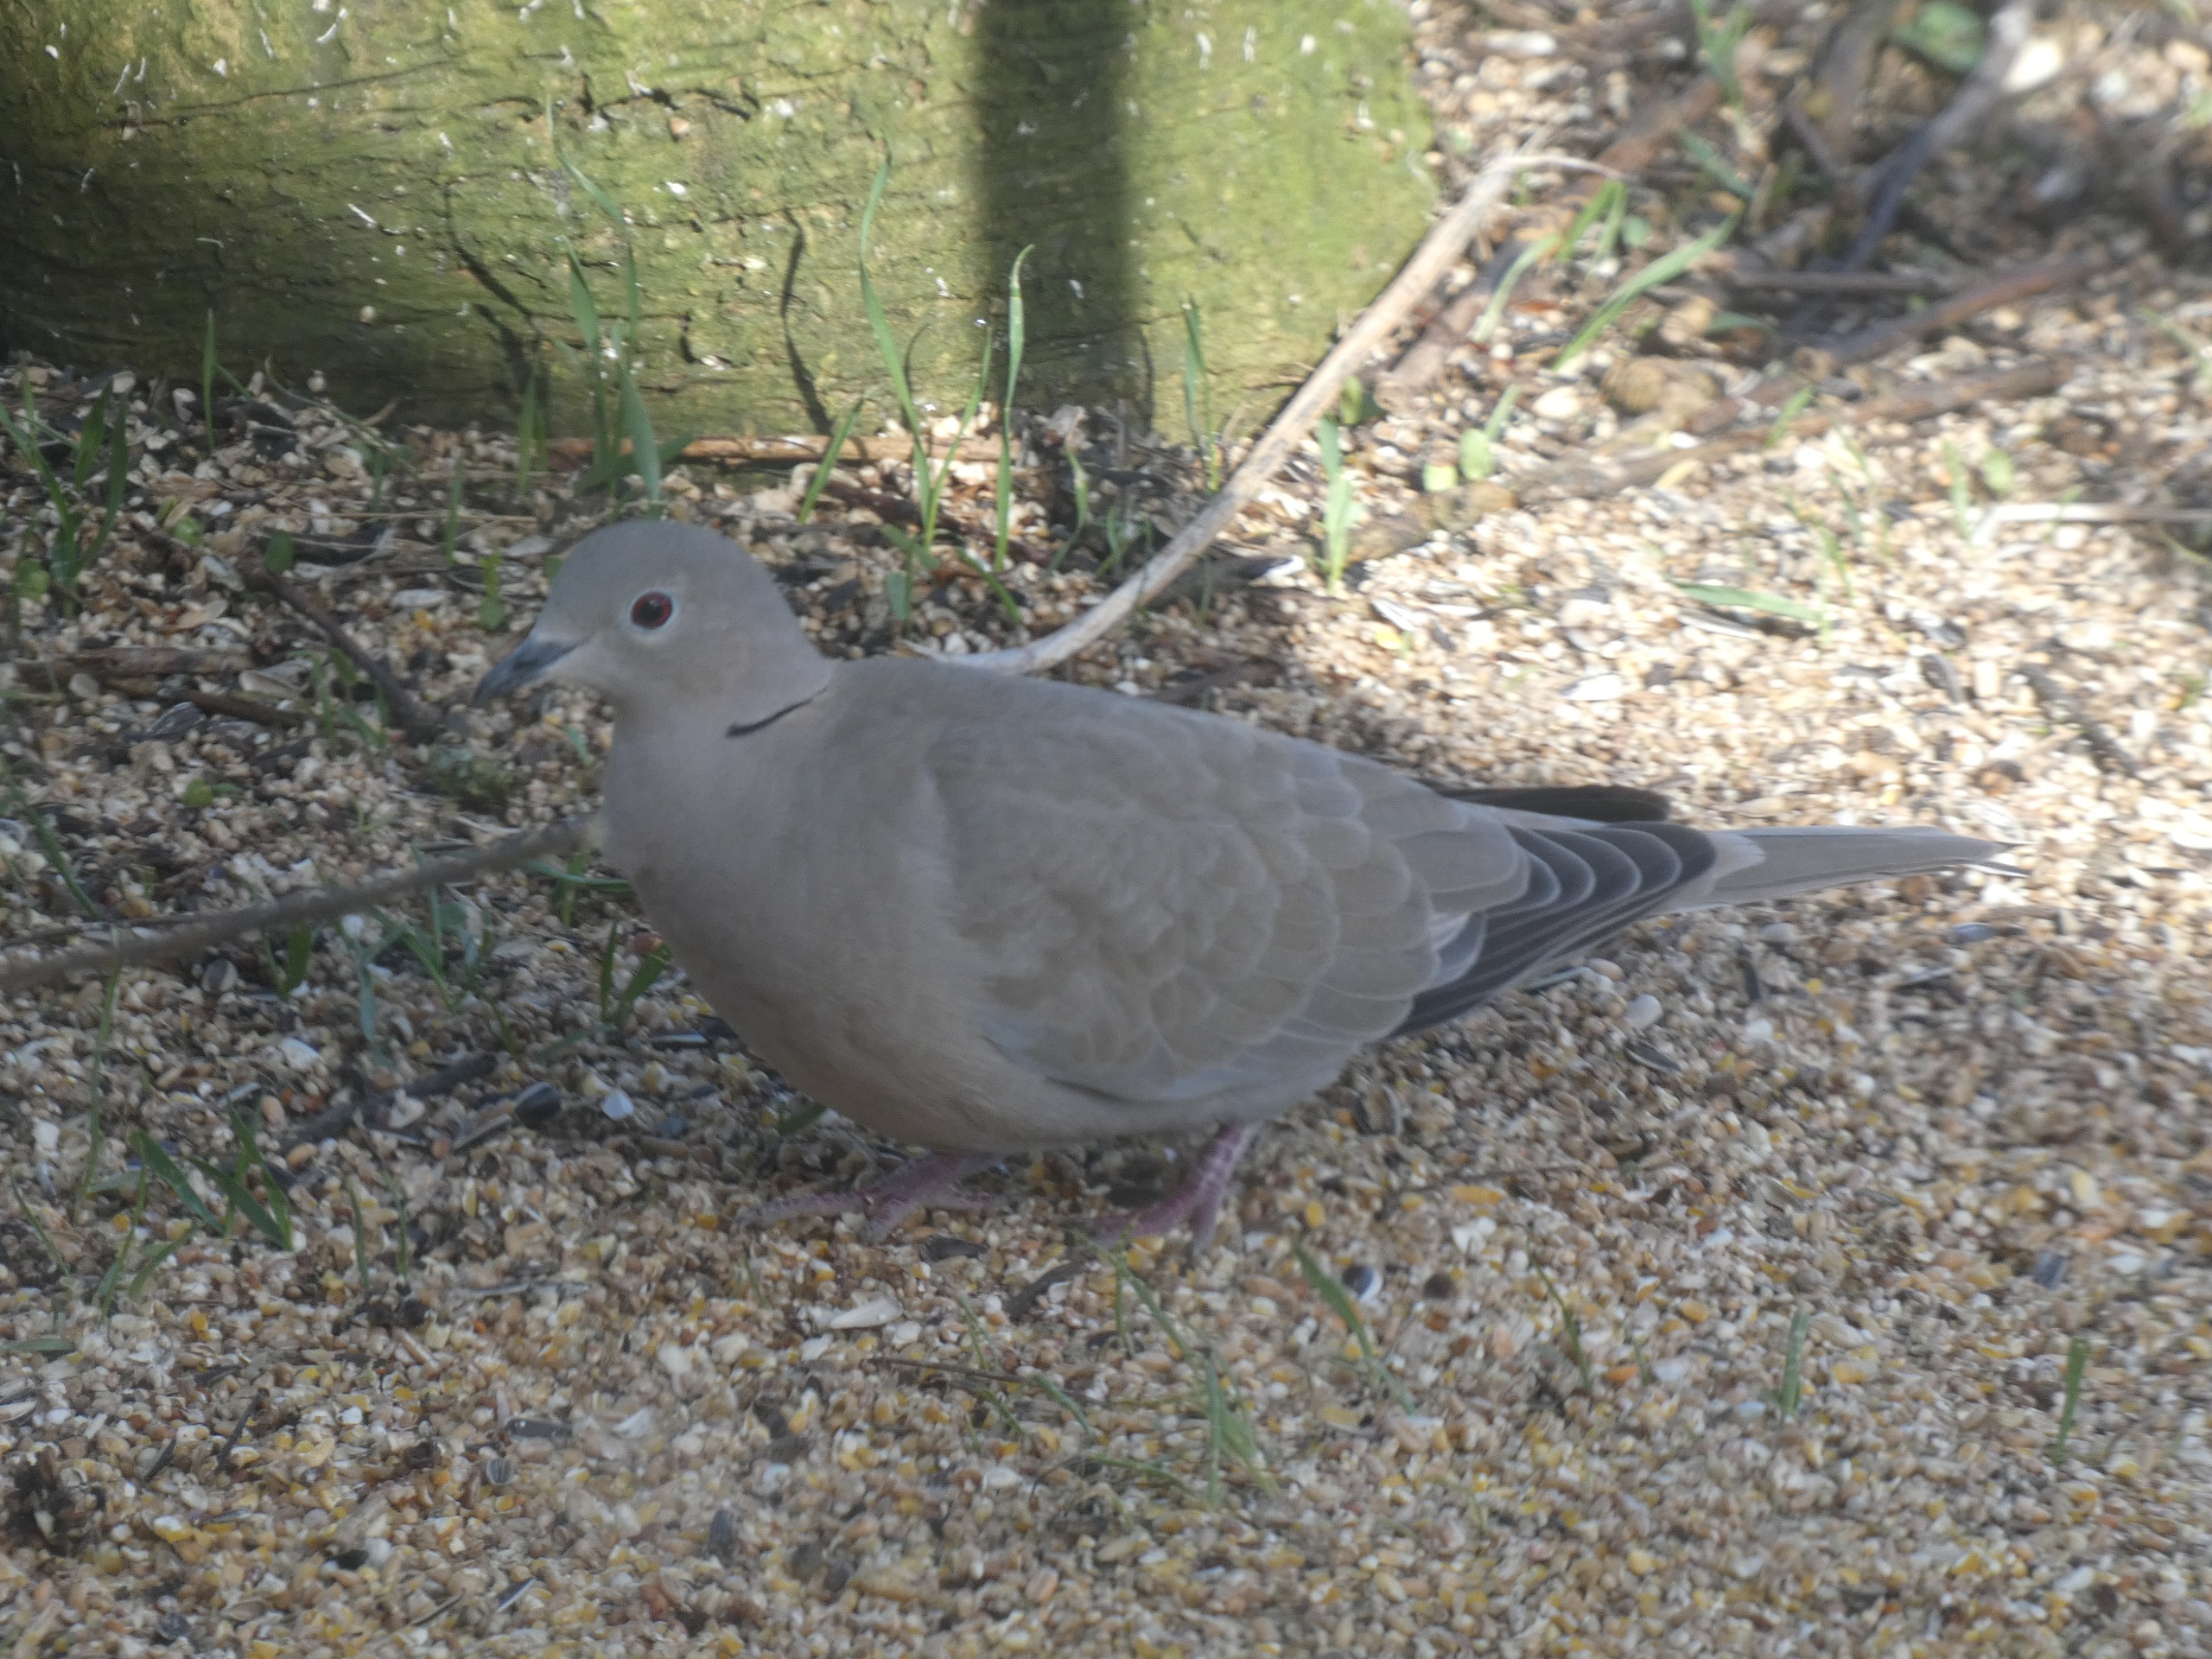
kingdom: Animalia
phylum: Chordata
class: Aves
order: Columbiformes
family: Columbidae
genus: Streptopelia
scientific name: Streptopelia decaocto
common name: Tyrkerdue
